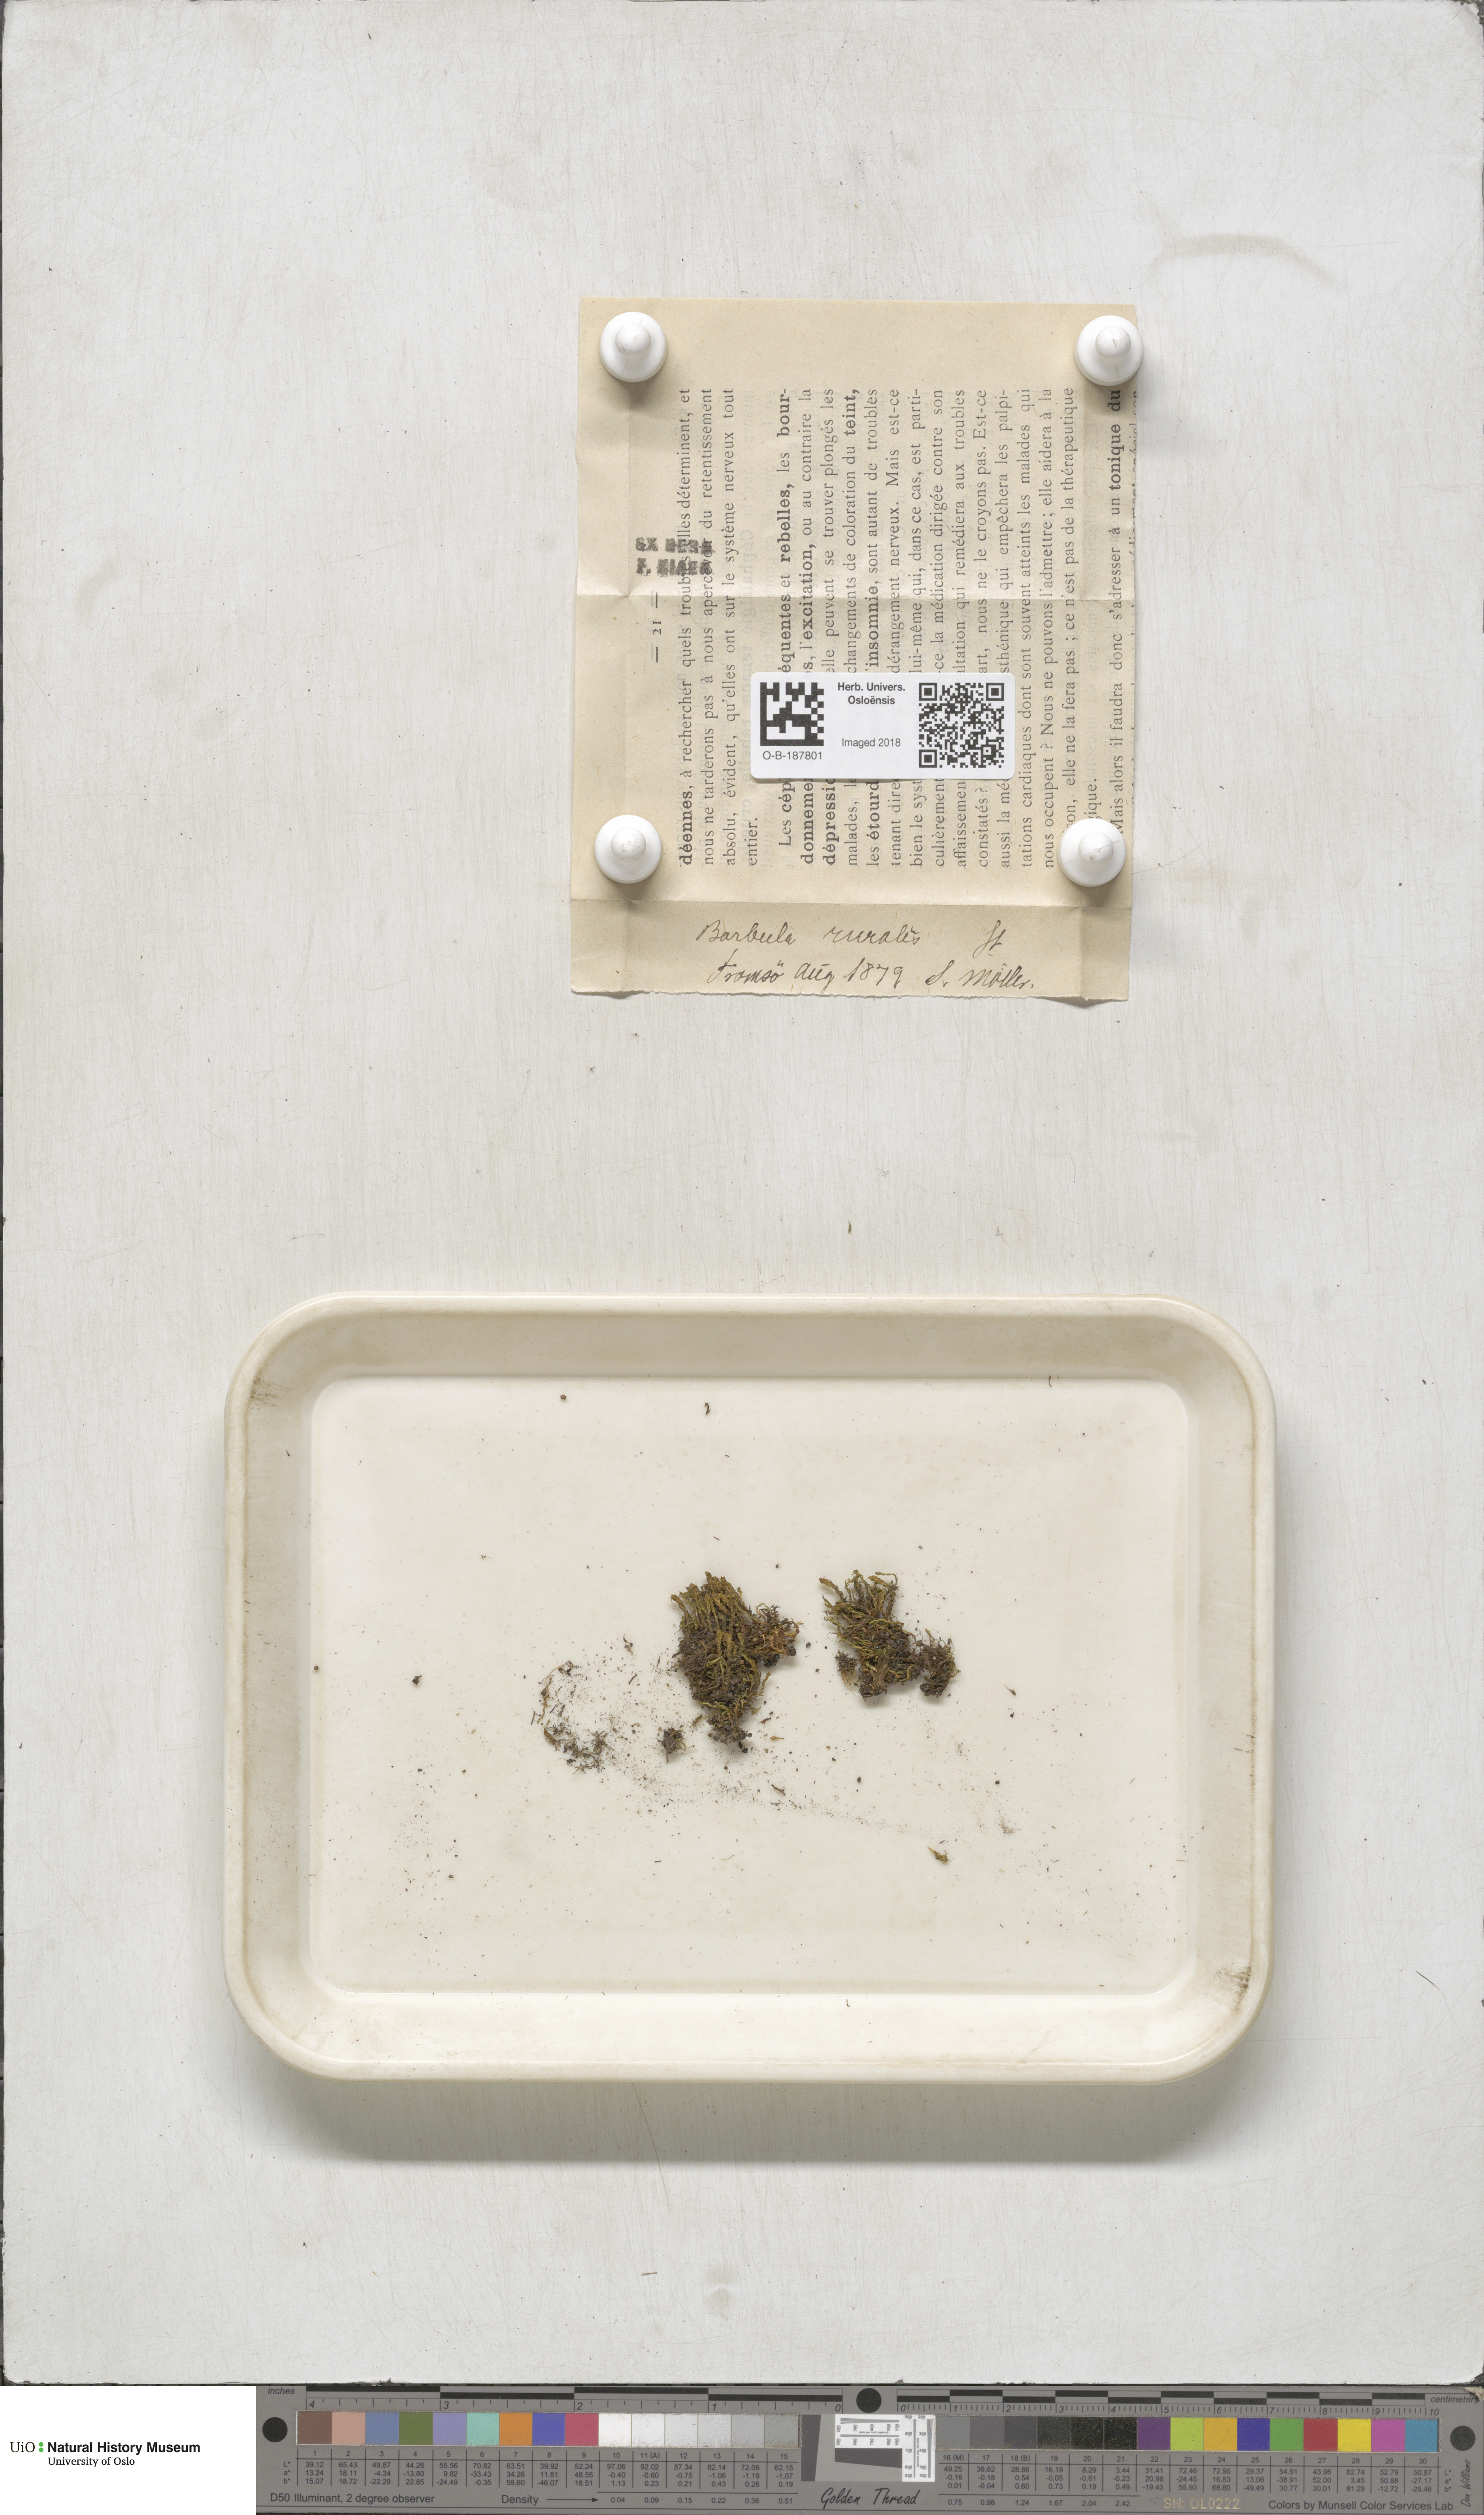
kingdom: Plantae
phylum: Bryophyta
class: Bryopsida
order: Pottiales
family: Pottiaceae
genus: Syntrichia
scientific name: Syntrichia ruralis
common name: Sidewalk screw moss
